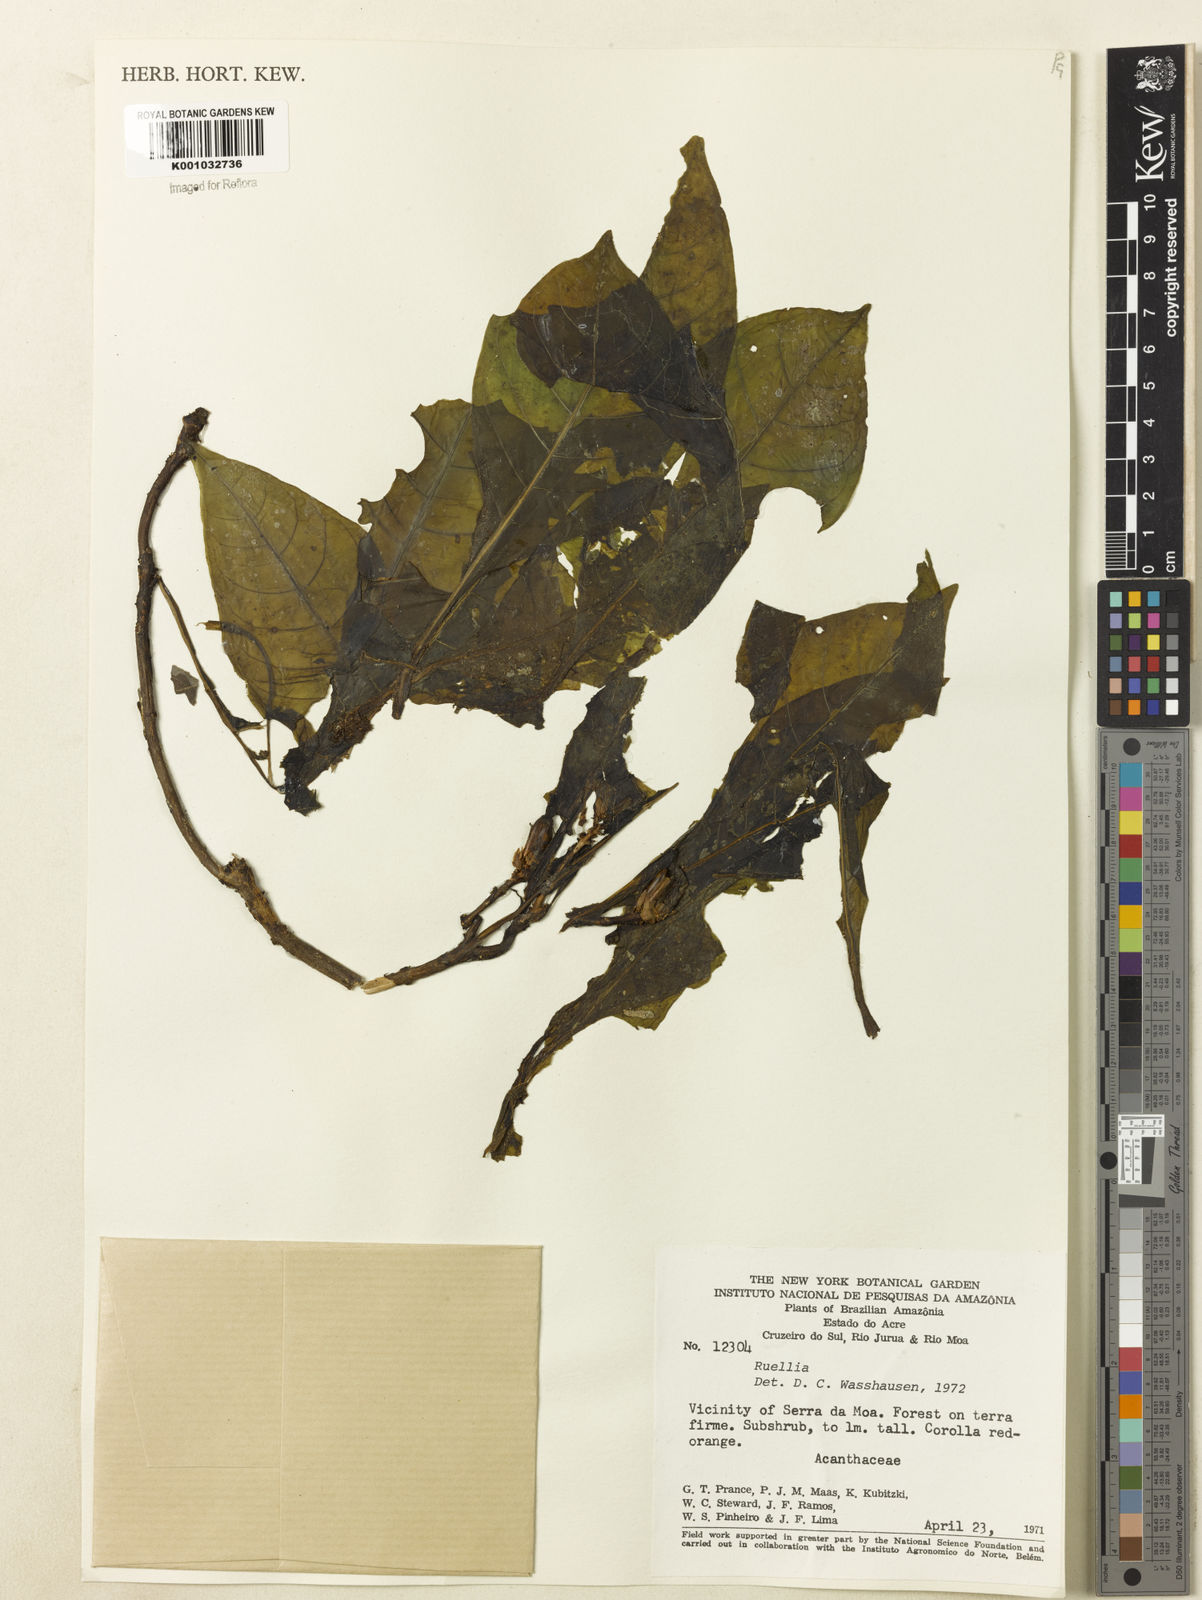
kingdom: Plantae
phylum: Tracheophyta
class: Magnoliopsida
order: Lamiales
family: Acanthaceae
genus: Ruellia
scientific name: Ruellia
